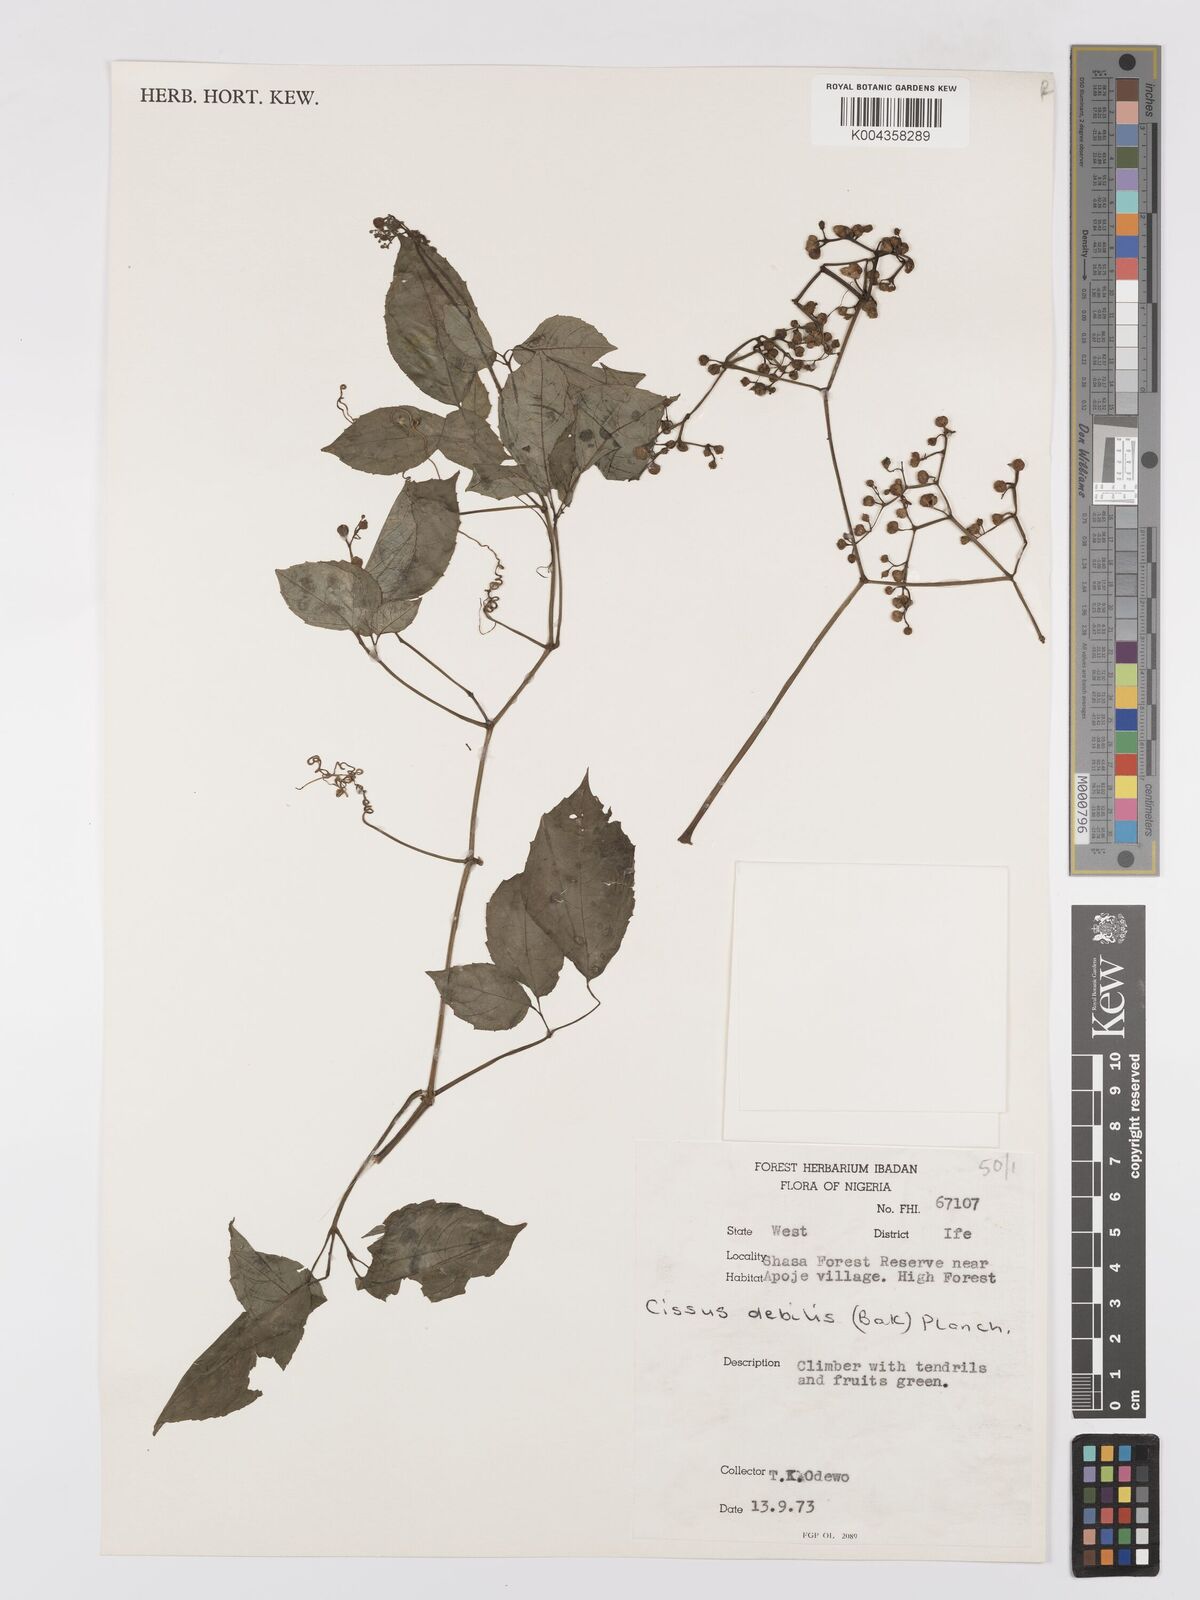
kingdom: Plantae
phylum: Tracheophyta
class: Magnoliopsida
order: Vitales
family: Vitaceae
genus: Afrocayratia
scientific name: Afrocayratia debilis
